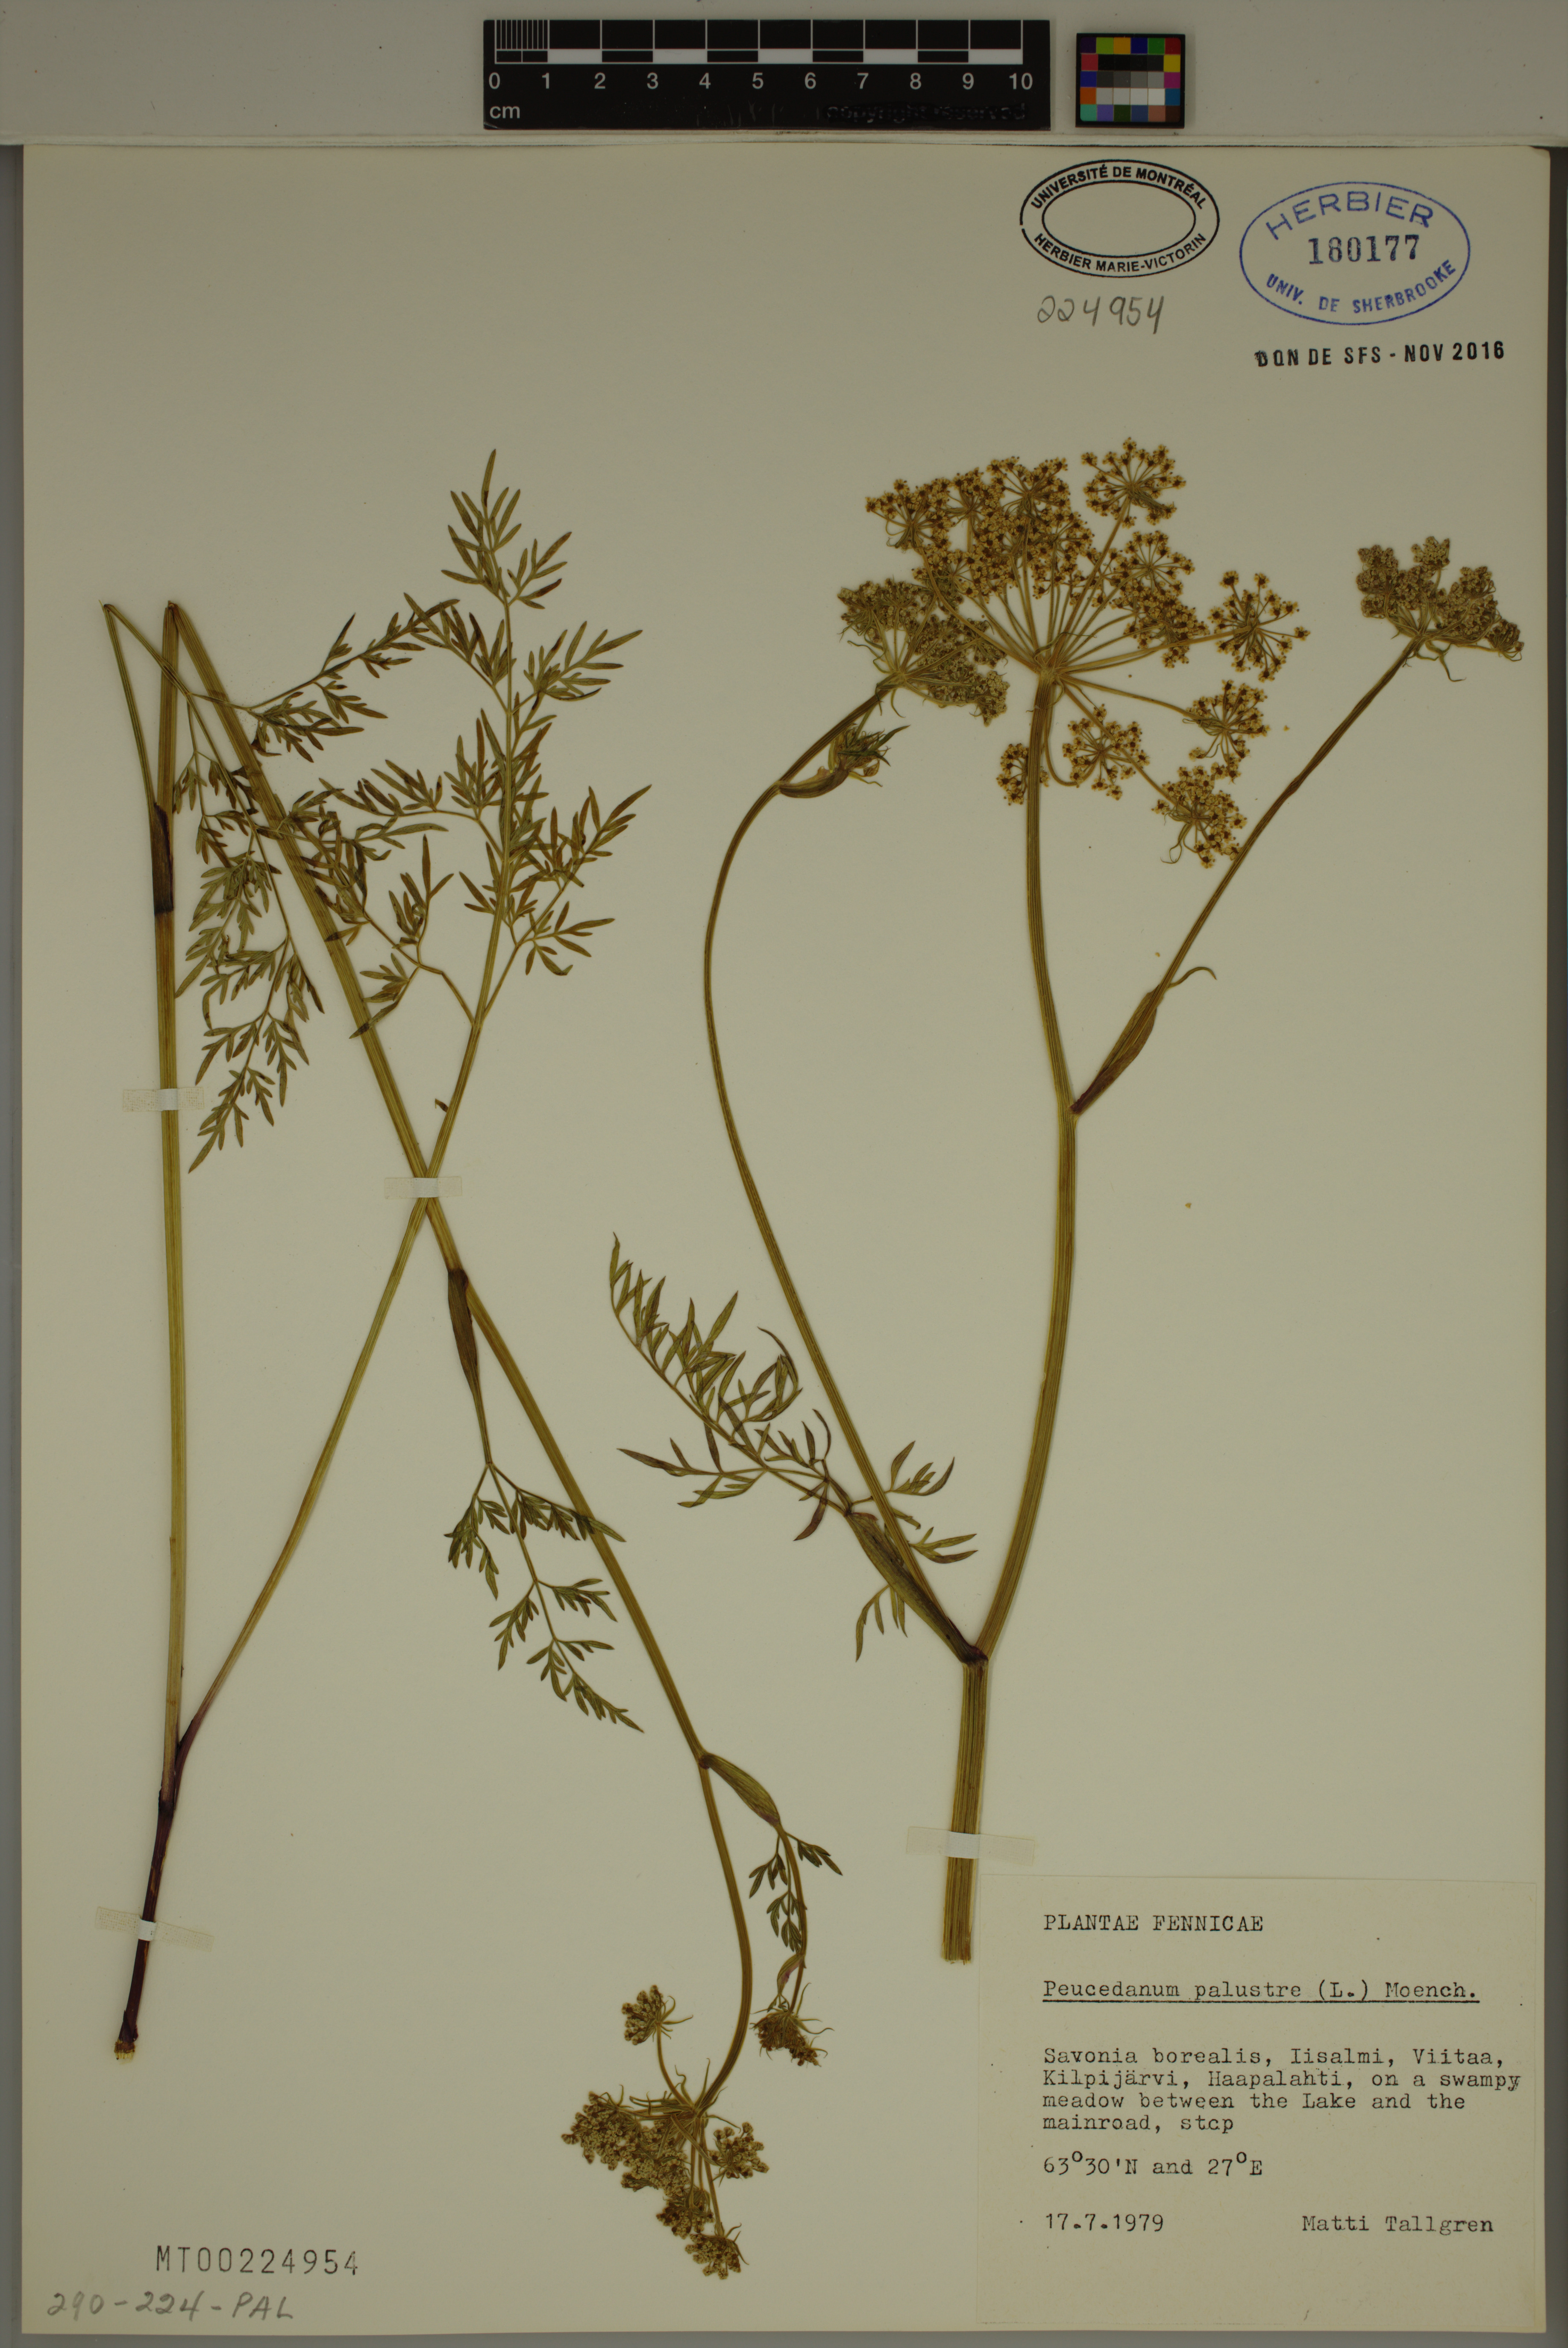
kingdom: Plantae
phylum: Tracheophyta
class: Magnoliopsida
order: Apiales
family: Apiaceae
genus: Thysselinum
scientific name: Thysselinum palustre
